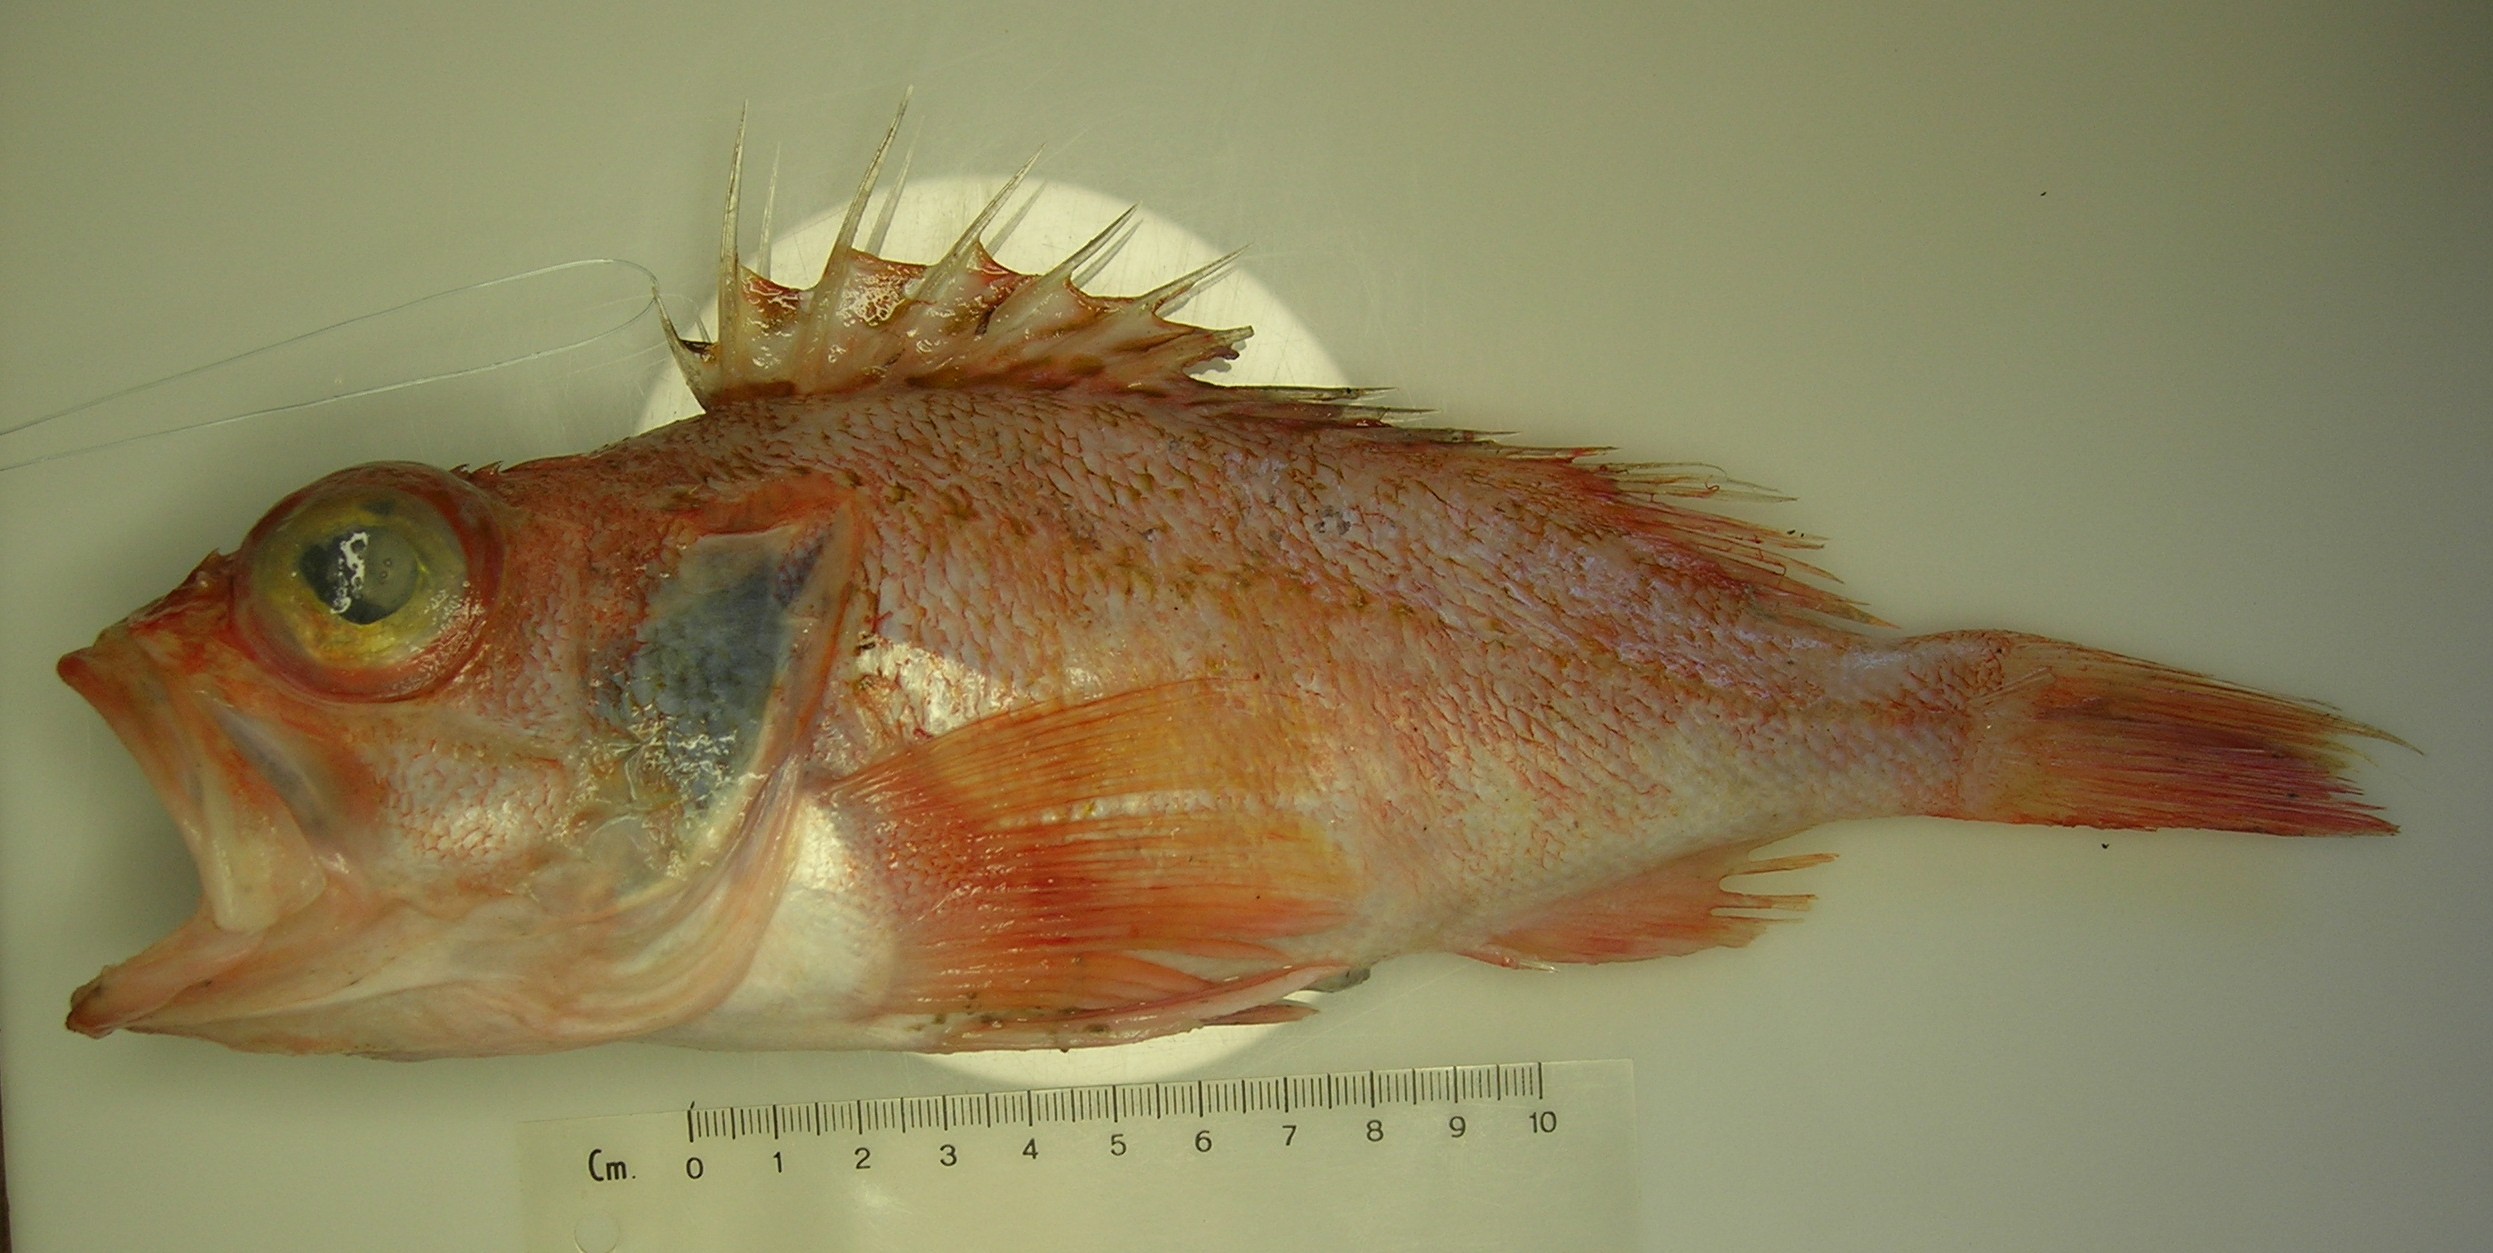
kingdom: Animalia
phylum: Chordata
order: Scorpaeniformes
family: Sebastidae
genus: Helicolenus
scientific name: Helicolenus dactylopterus
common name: Blackbelly rosefish
